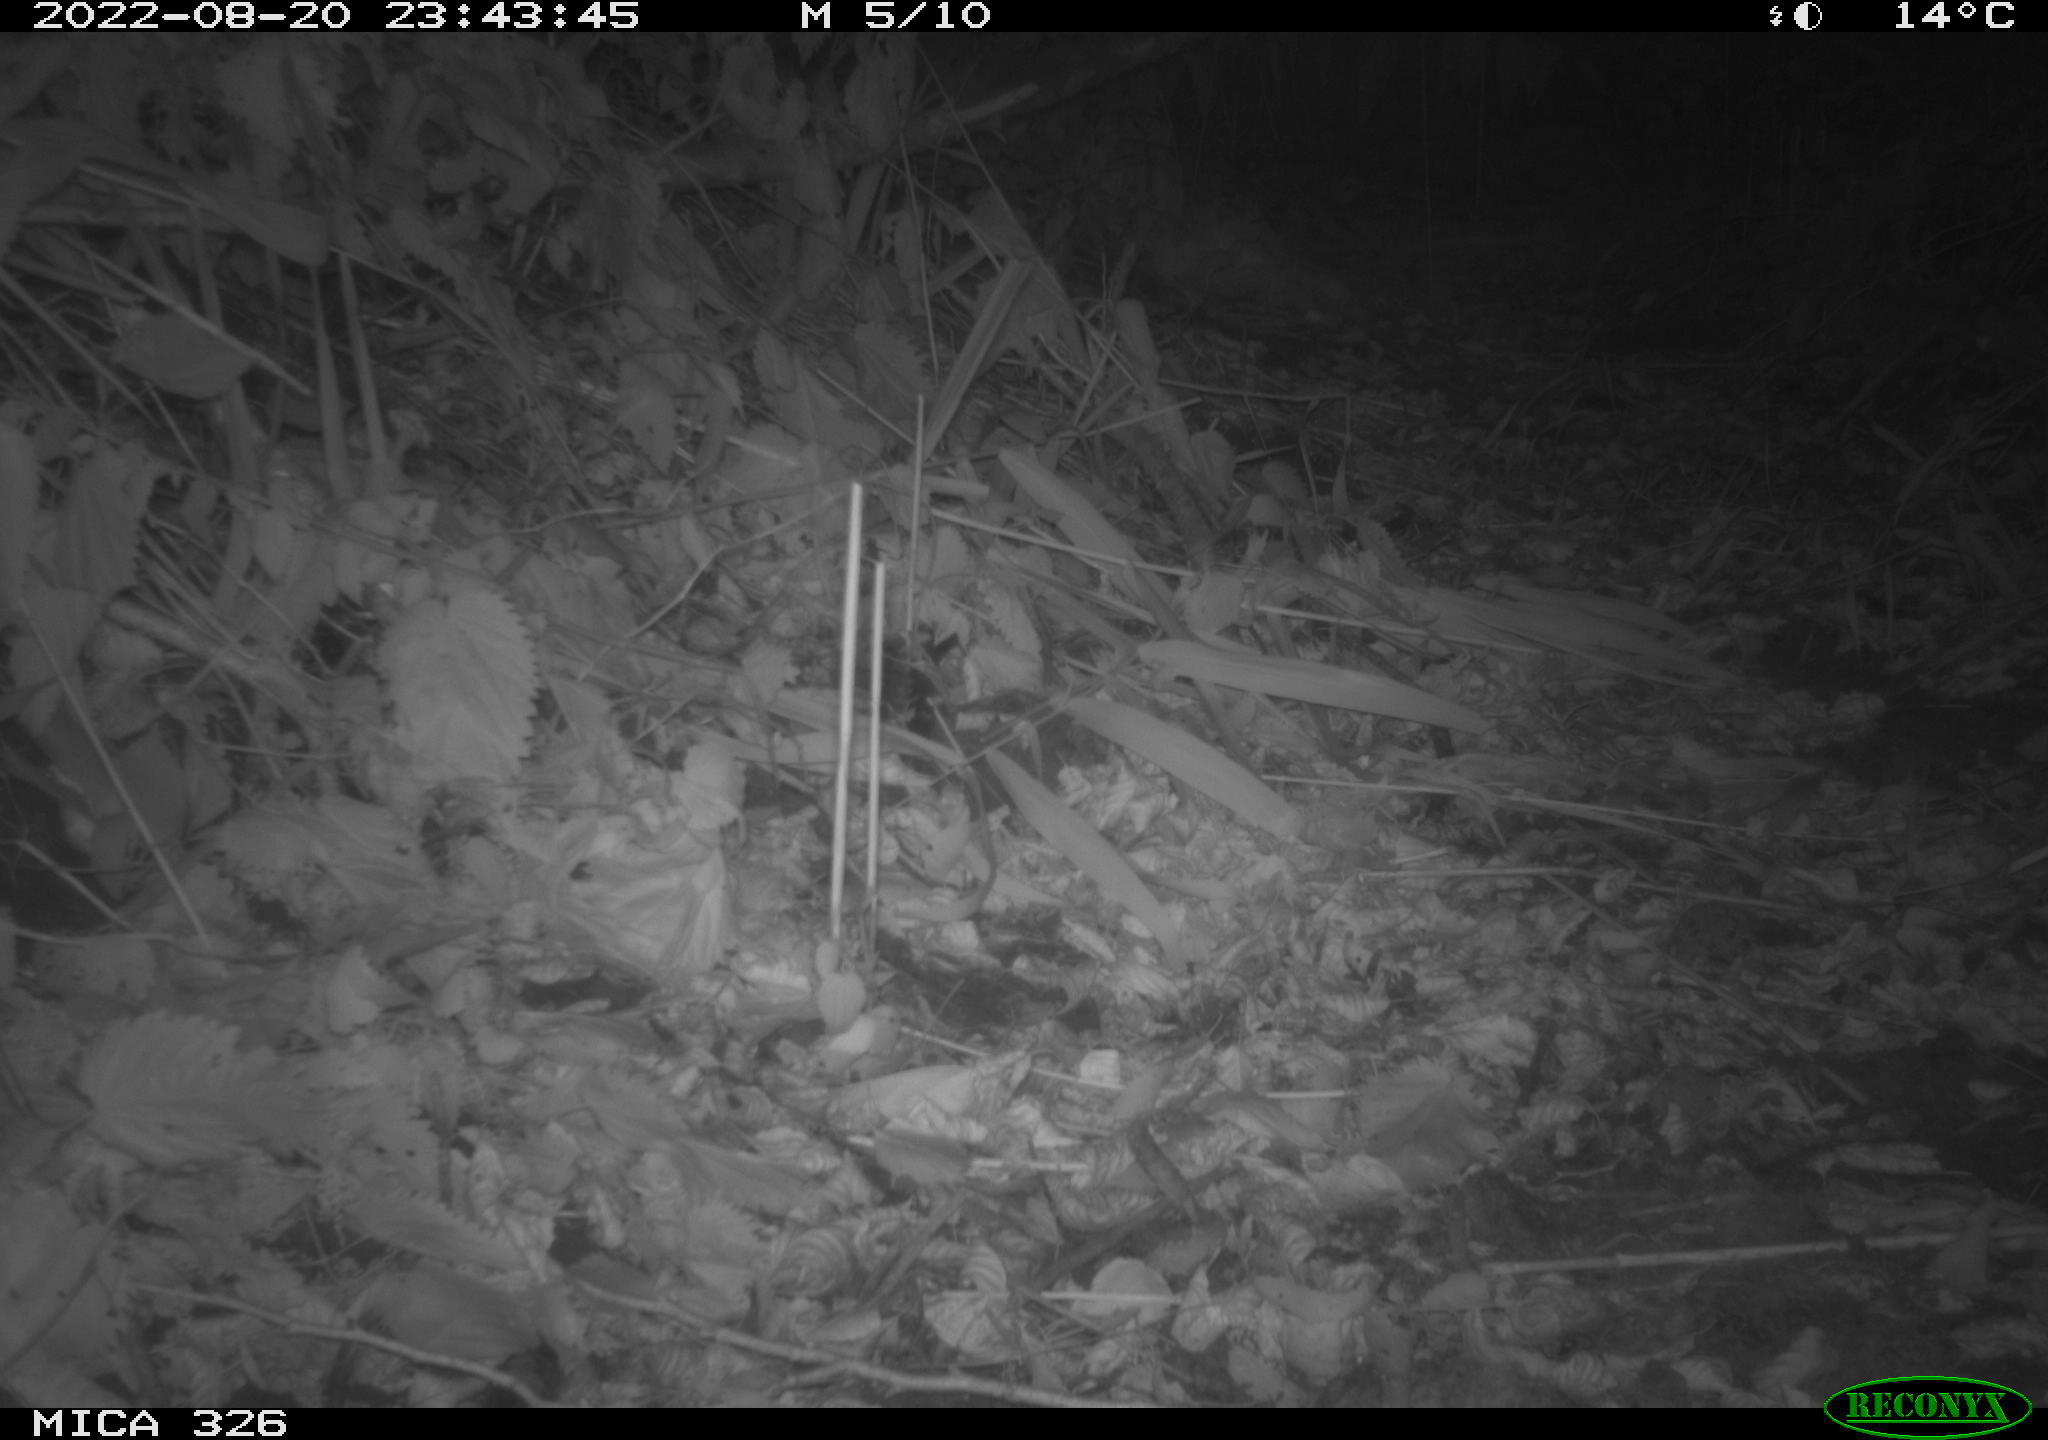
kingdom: Animalia
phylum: Chordata
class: Mammalia
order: Rodentia
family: Muridae
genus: Rattus
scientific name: Rattus norvegicus
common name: Brown rat
